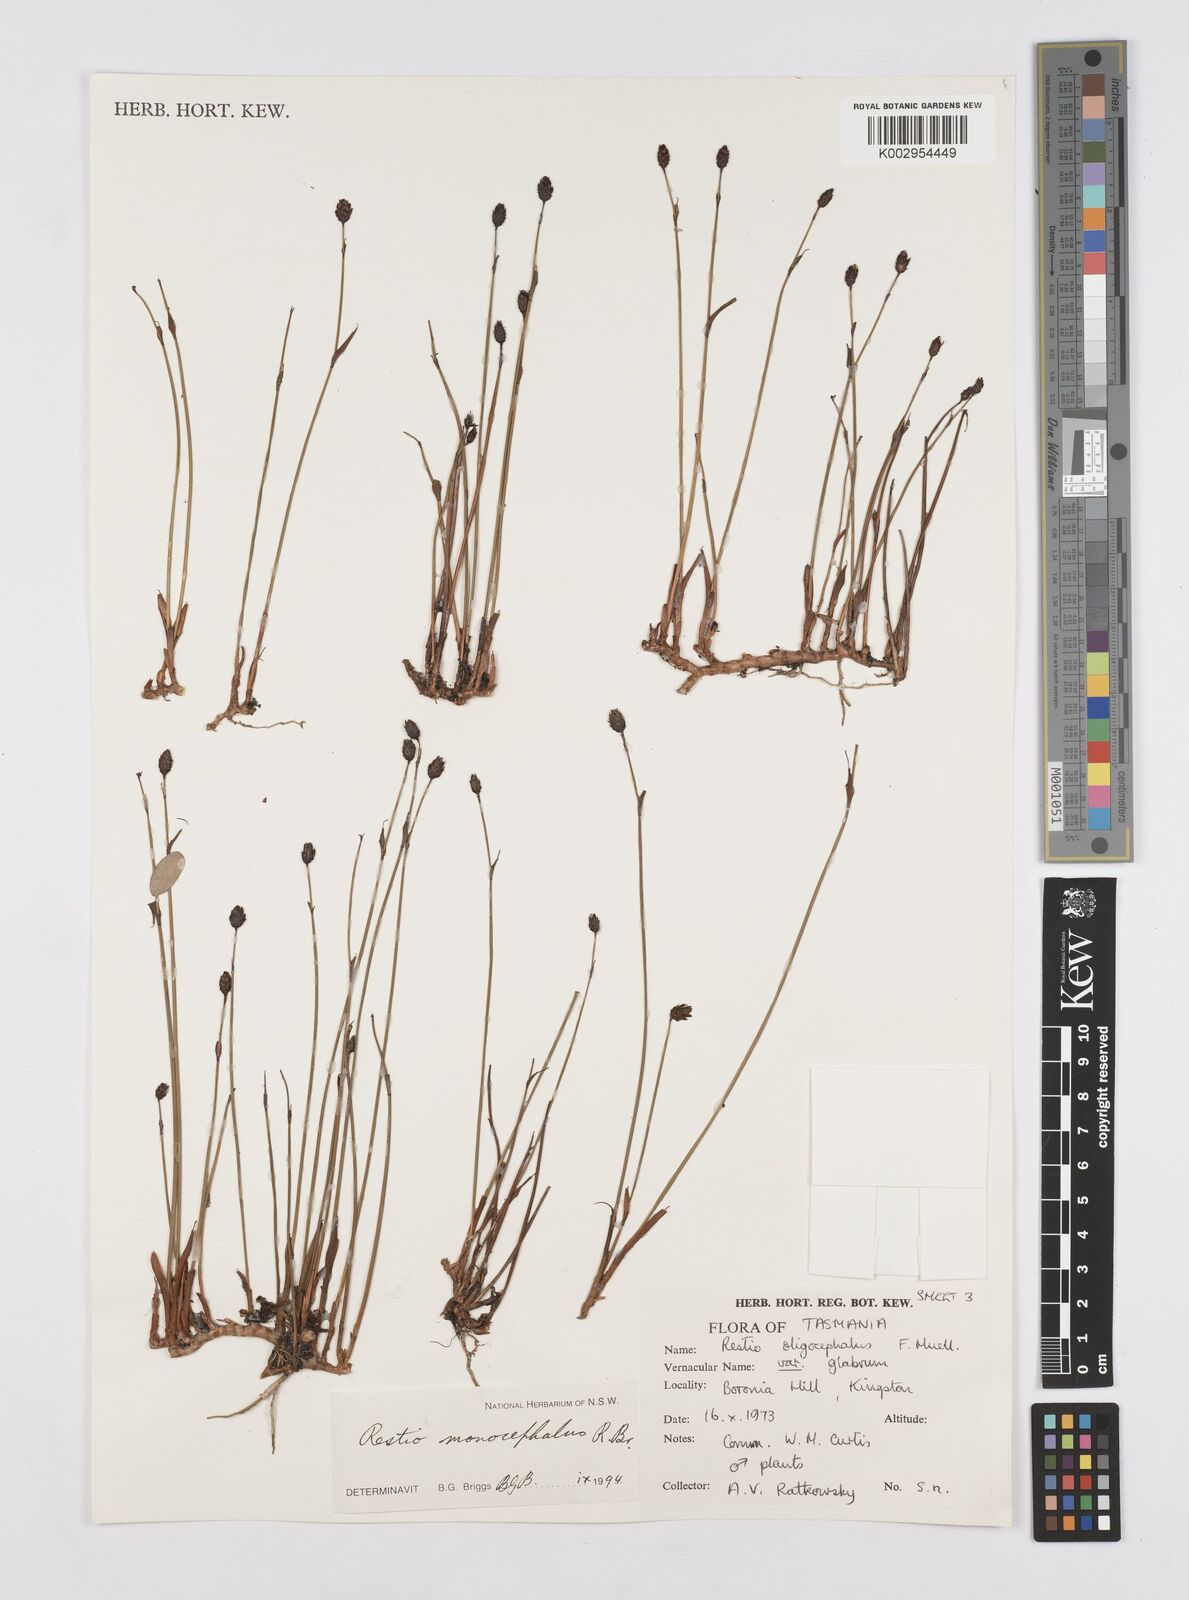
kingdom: Plantae
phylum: Tracheophyta
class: Liliopsida
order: Poales
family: Restionaceae
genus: Chordifex
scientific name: Chordifex monocephalus
